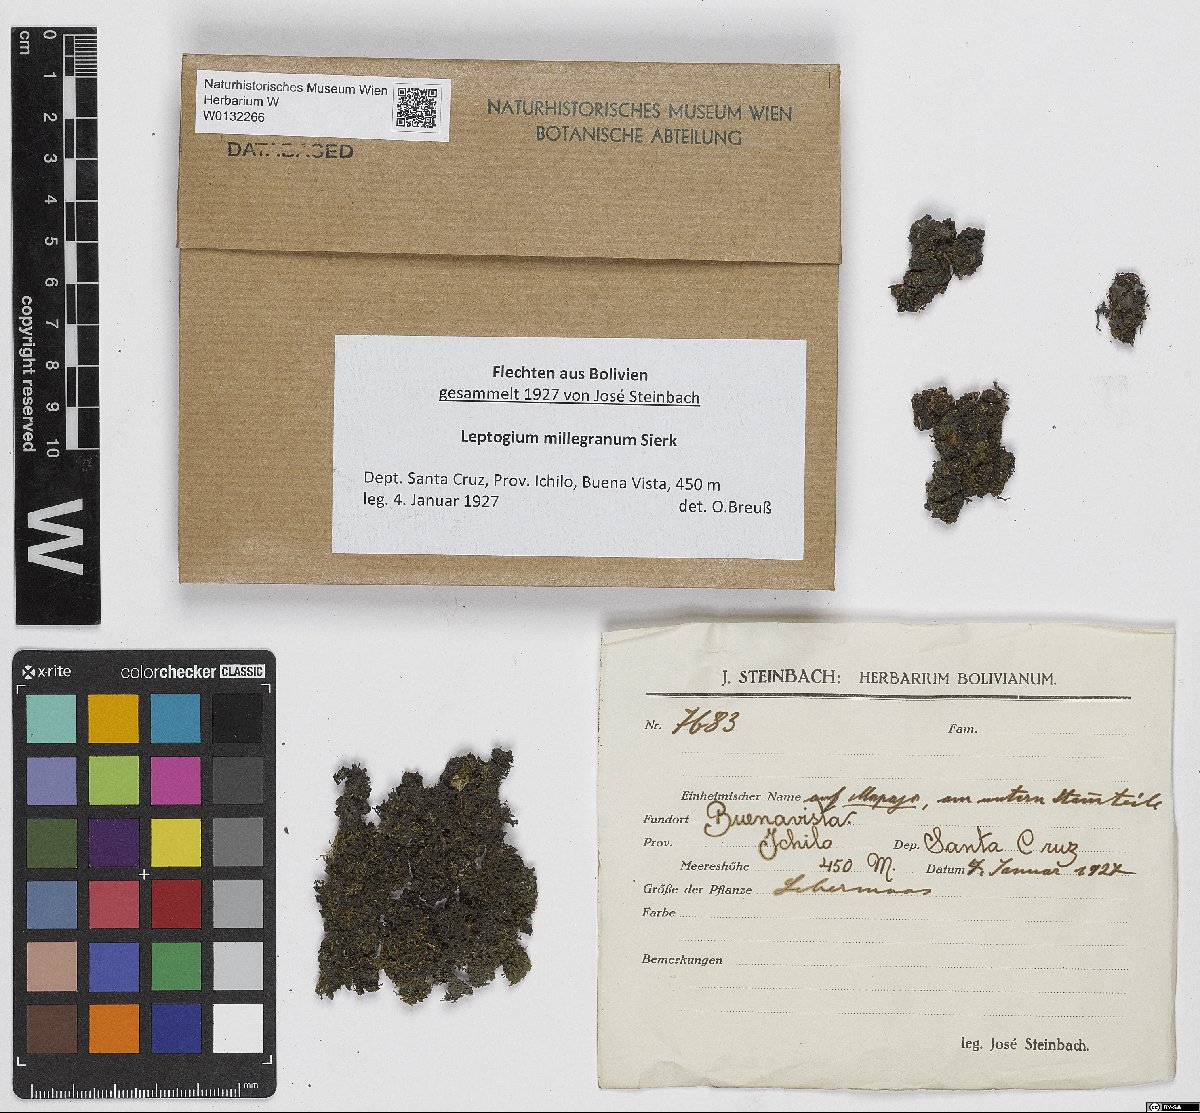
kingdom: Fungi
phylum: Ascomycota
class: Lecanoromycetes
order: Peltigerales
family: Collemataceae
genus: Leptogium
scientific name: Leptogium milligranum
